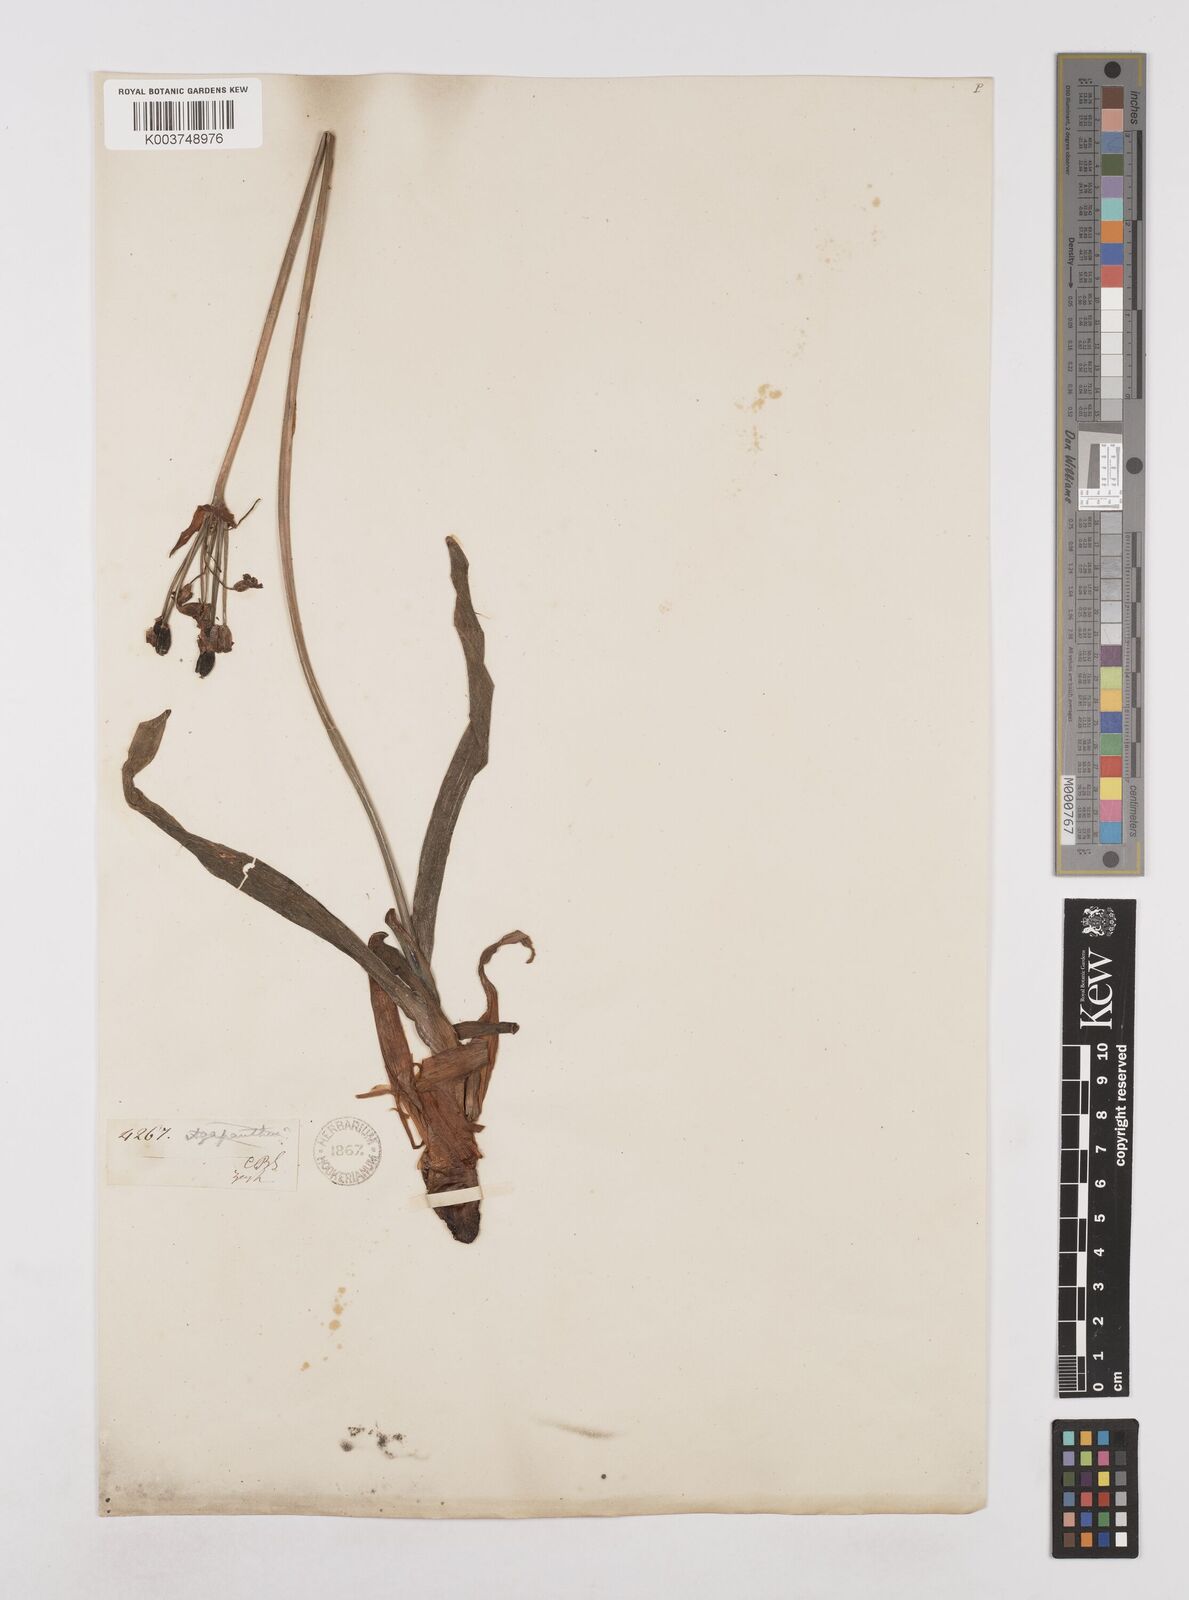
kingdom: Plantae
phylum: Tracheophyta
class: Liliopsida
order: Asparagales
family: Amaryllidaceae
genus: Tulbaghia
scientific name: Tulbaghia ludwigiana
